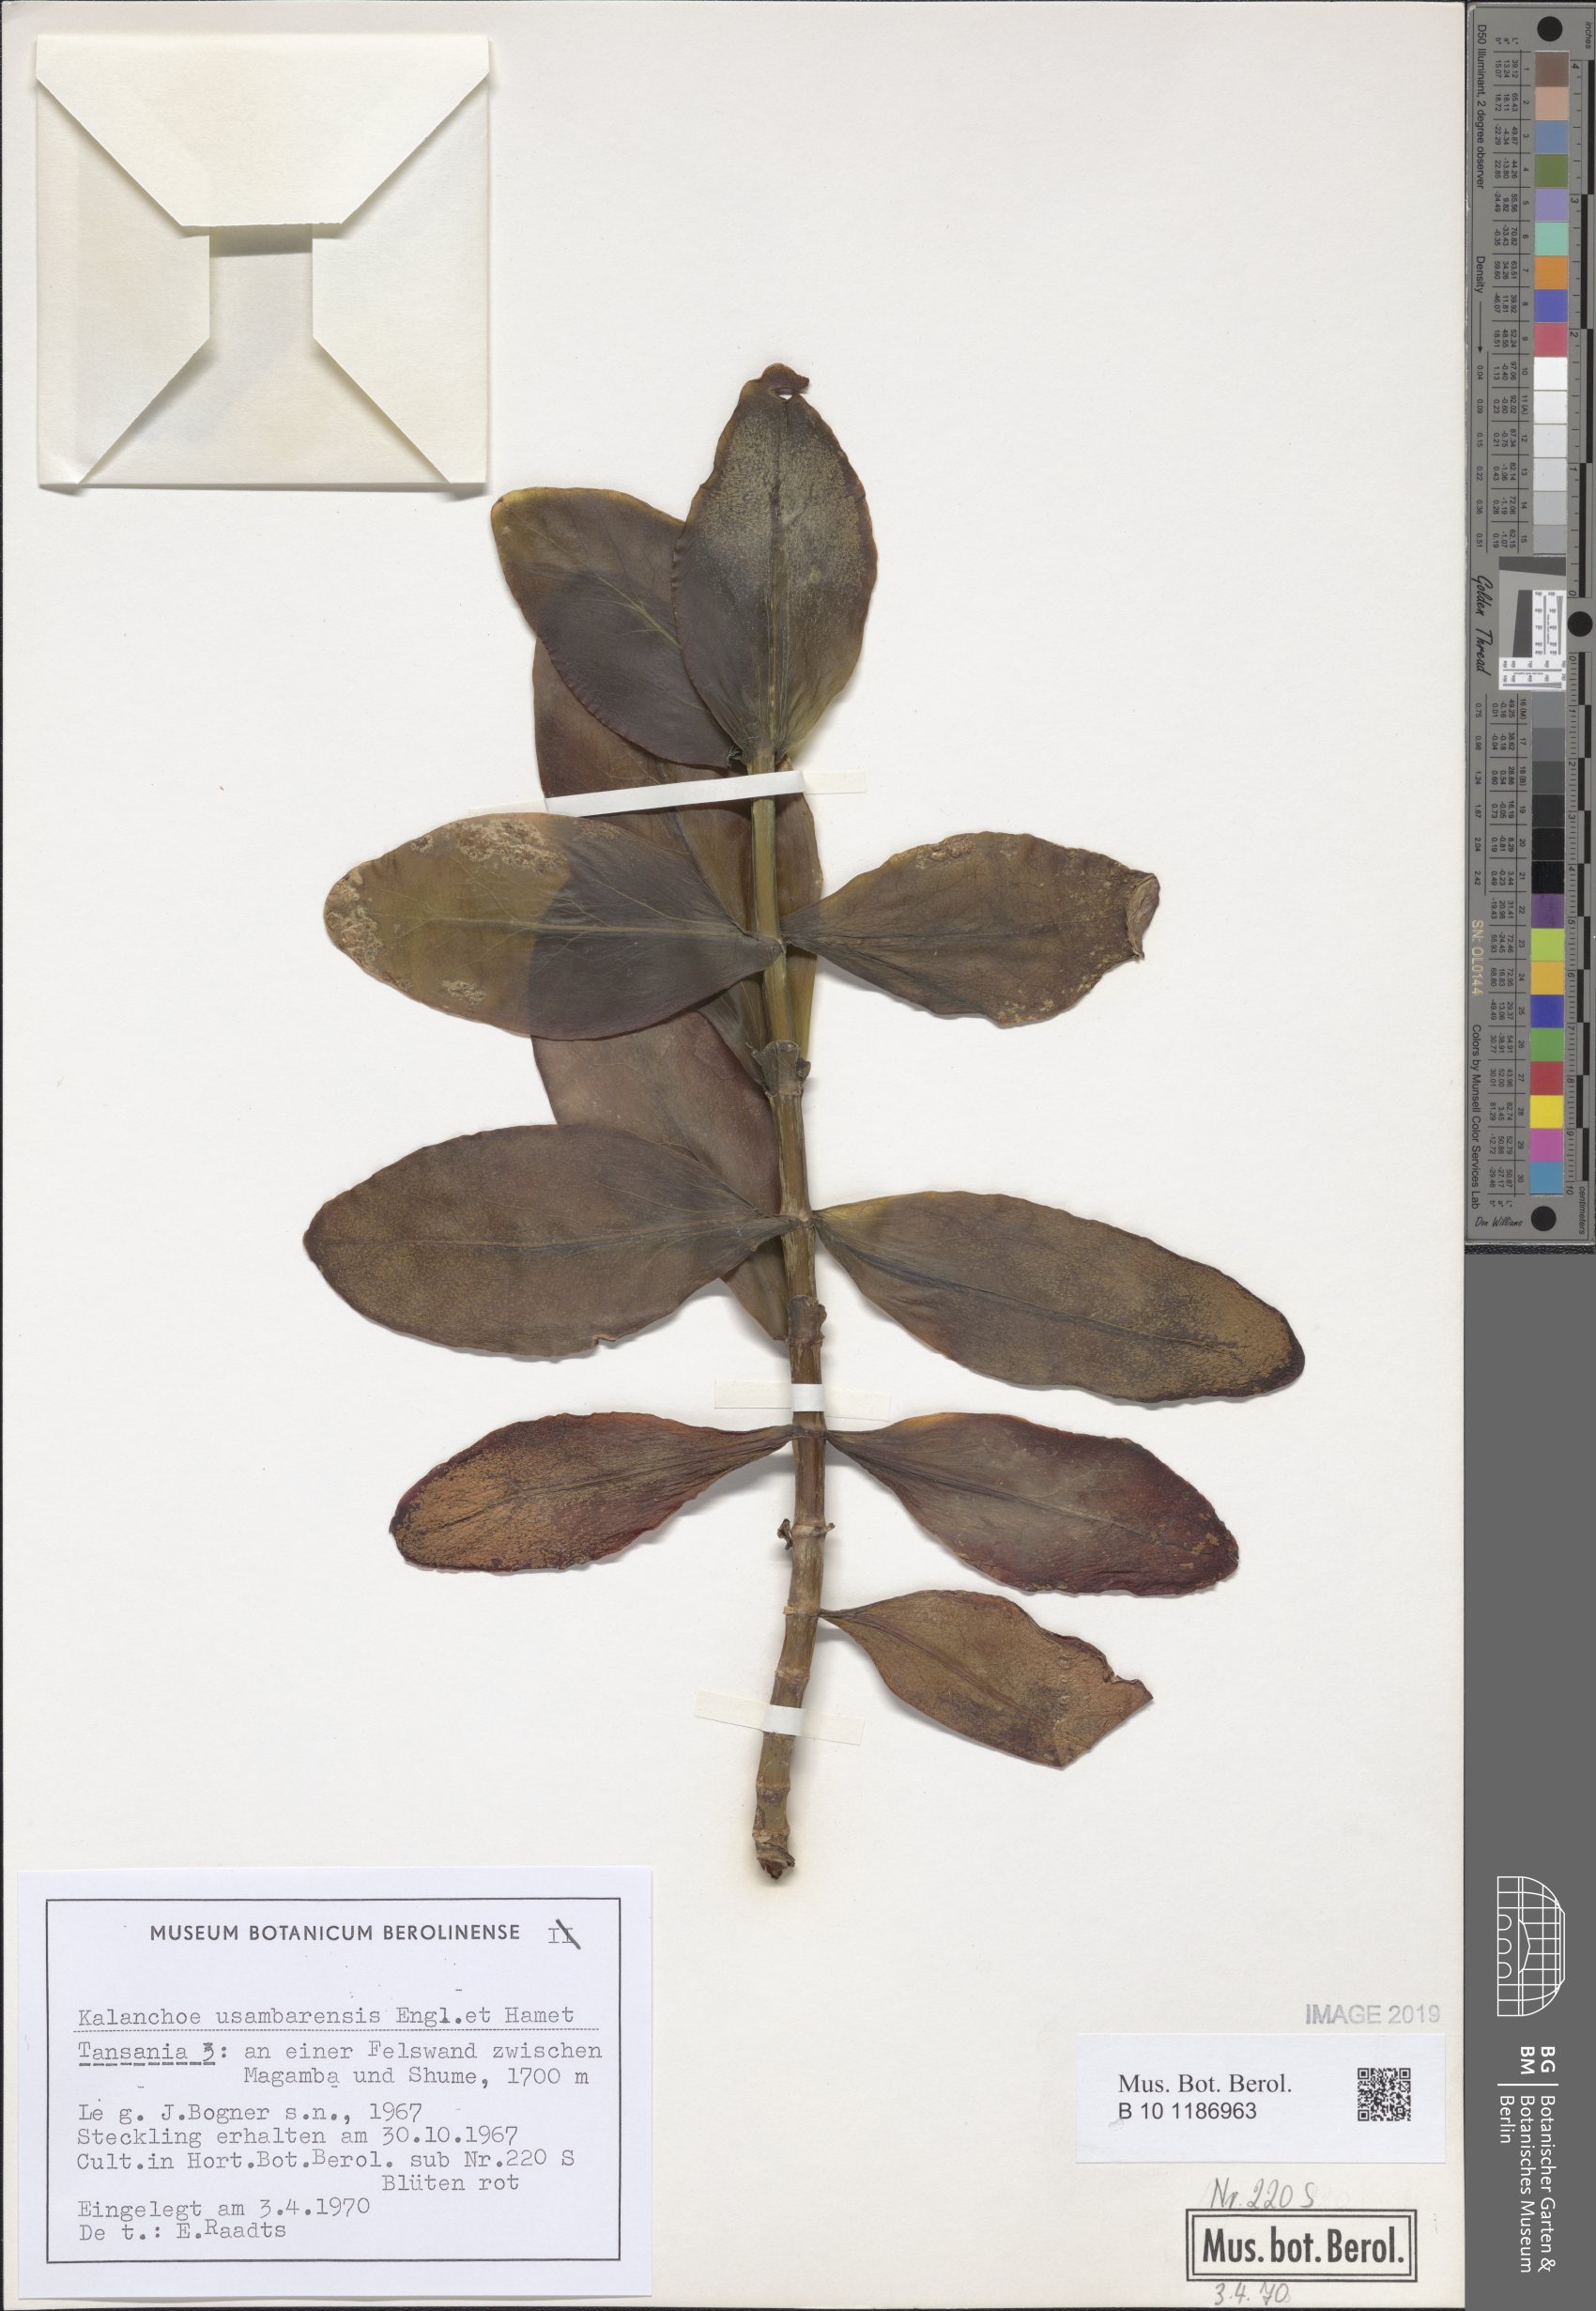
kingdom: Plantae
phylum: Tracheophyta
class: Magnoliopsida
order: Saxifragales
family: Crassulaceae
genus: Kalanchoe
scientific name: Kalanchoe usambarensis
